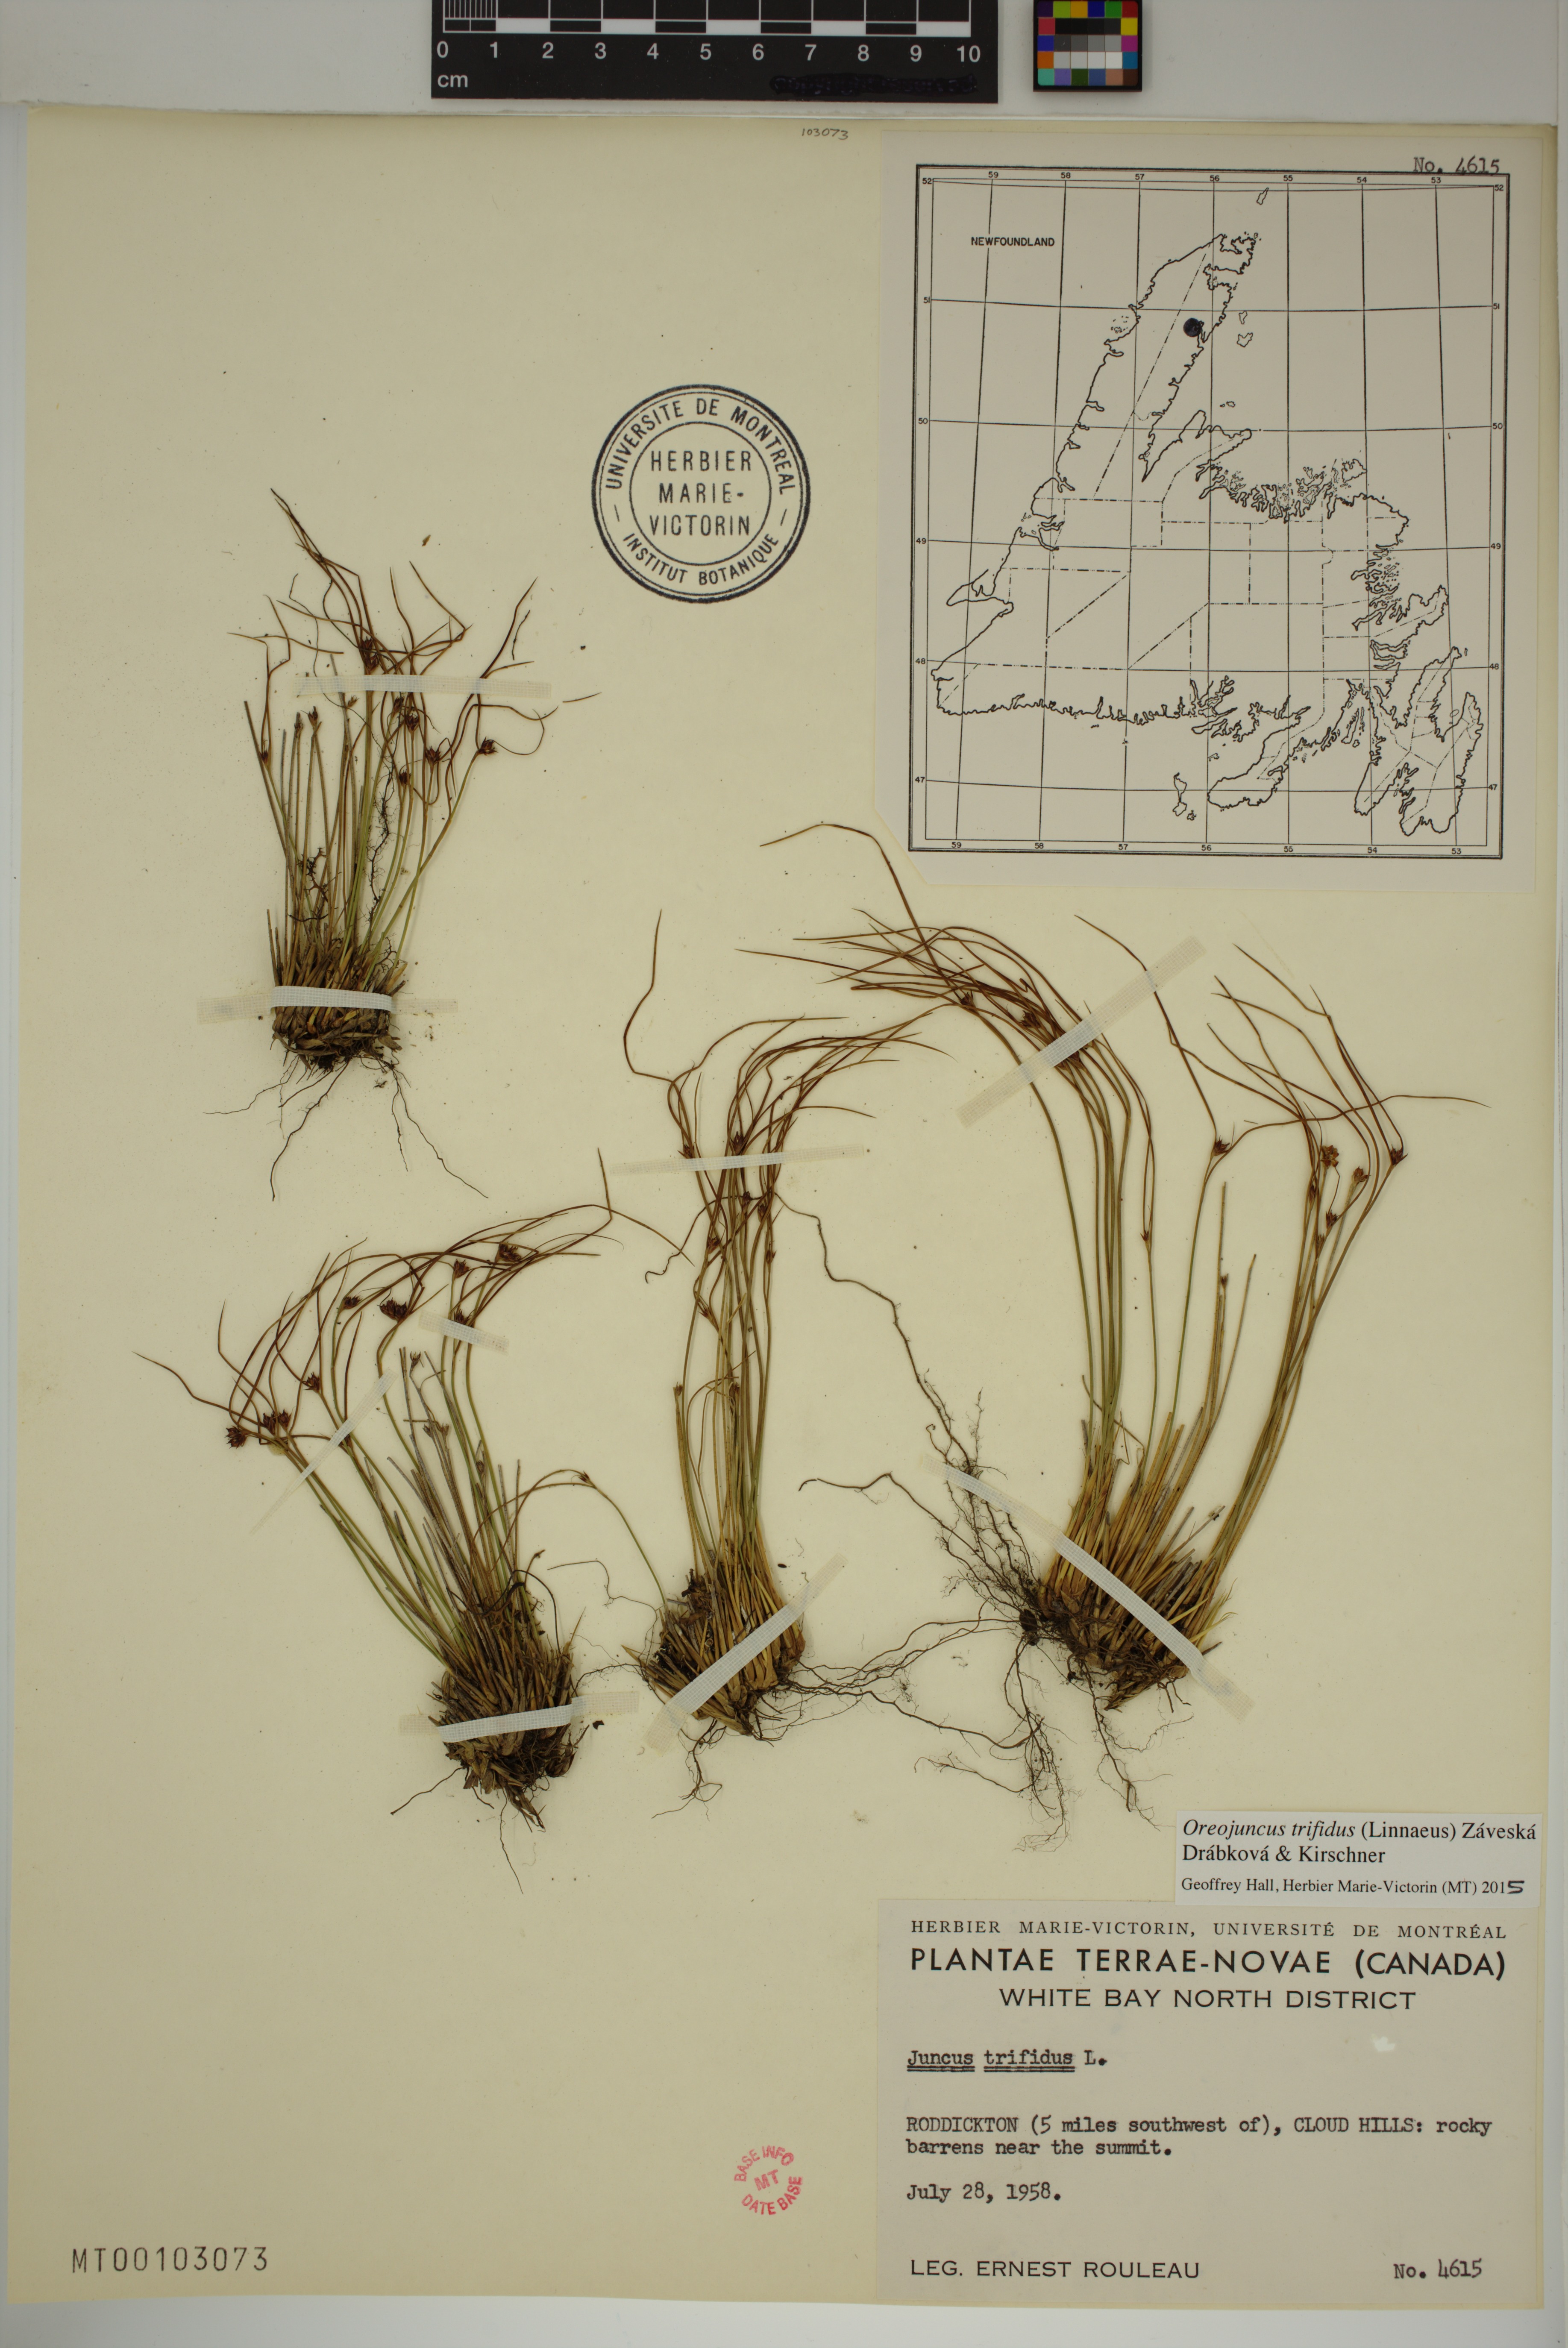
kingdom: Plantae
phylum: Tracheophyta
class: Liliopsida
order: Poales
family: Juncaceae
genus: Oreojuncus
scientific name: Oreojuncus trifidus
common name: Highland rush
